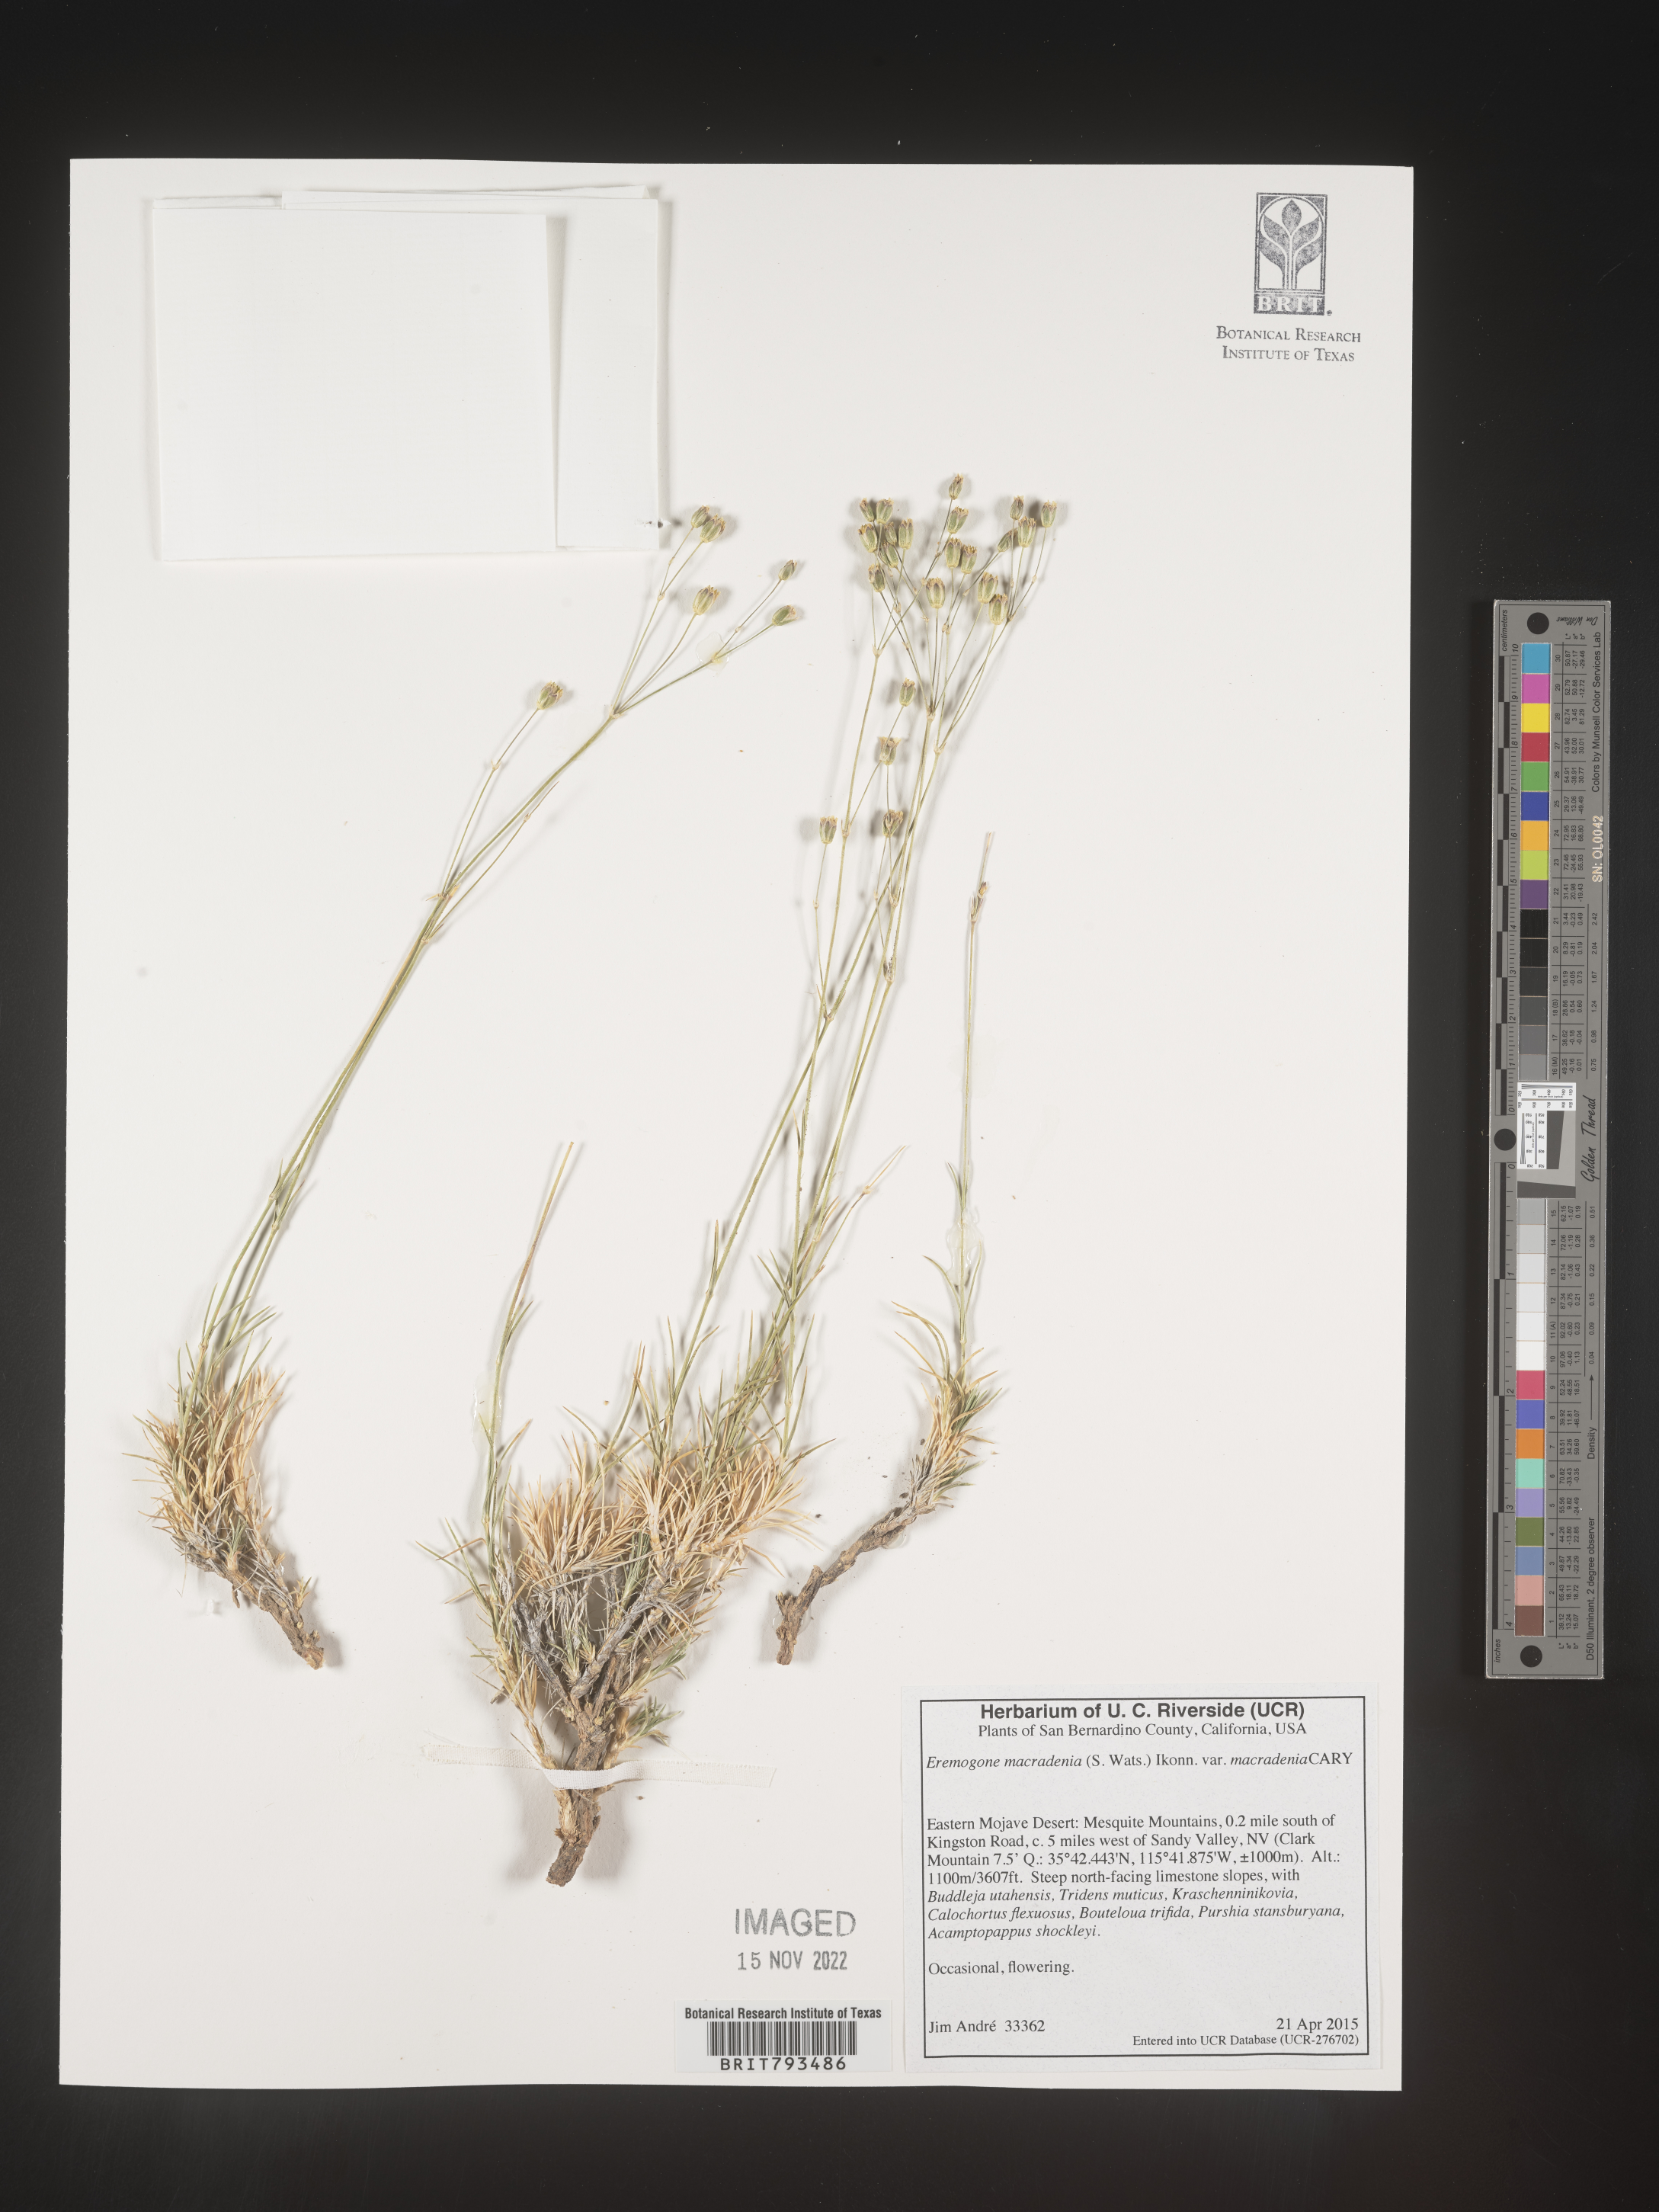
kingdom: Plantae
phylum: Tracheophyta
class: Magnoliopsida
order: Caryophyllales
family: Caryophyllaceae
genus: Eremogone
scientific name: Eremogone macradenia
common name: Mohave sandwort
